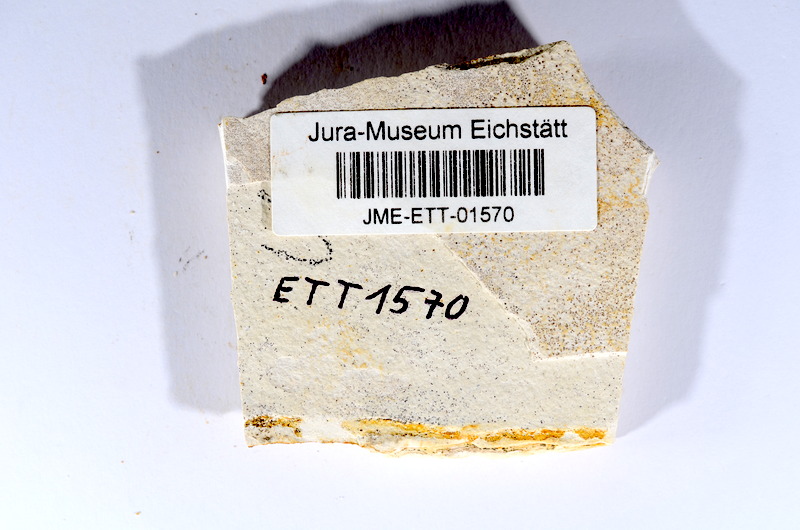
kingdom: Animalia
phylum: Chordata
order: Salmoniformes
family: Orthogonikleithridae
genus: Orthogonikleithrus
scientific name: Orthogonikleithrus hoelli
